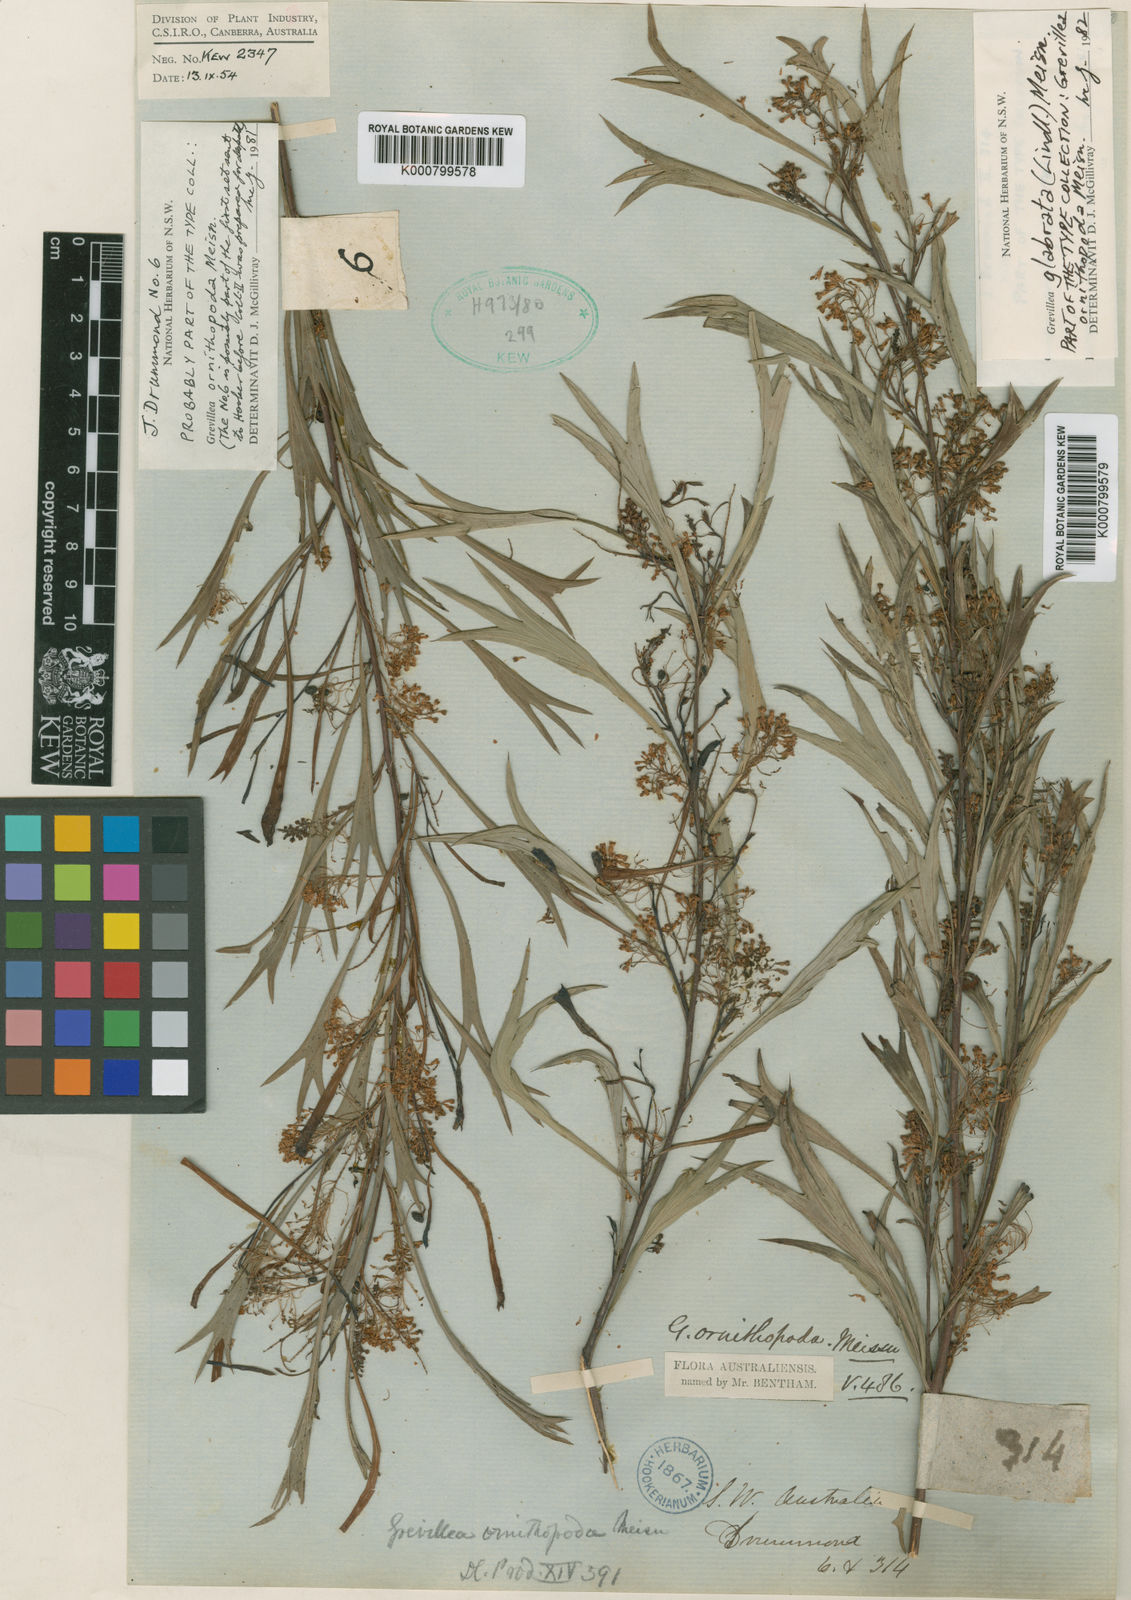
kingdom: Plantae
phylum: Tracheophyta
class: Magnoliopsida
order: Proteales
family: Proteaceae
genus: Grevillea
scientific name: Grevillea manglesii
